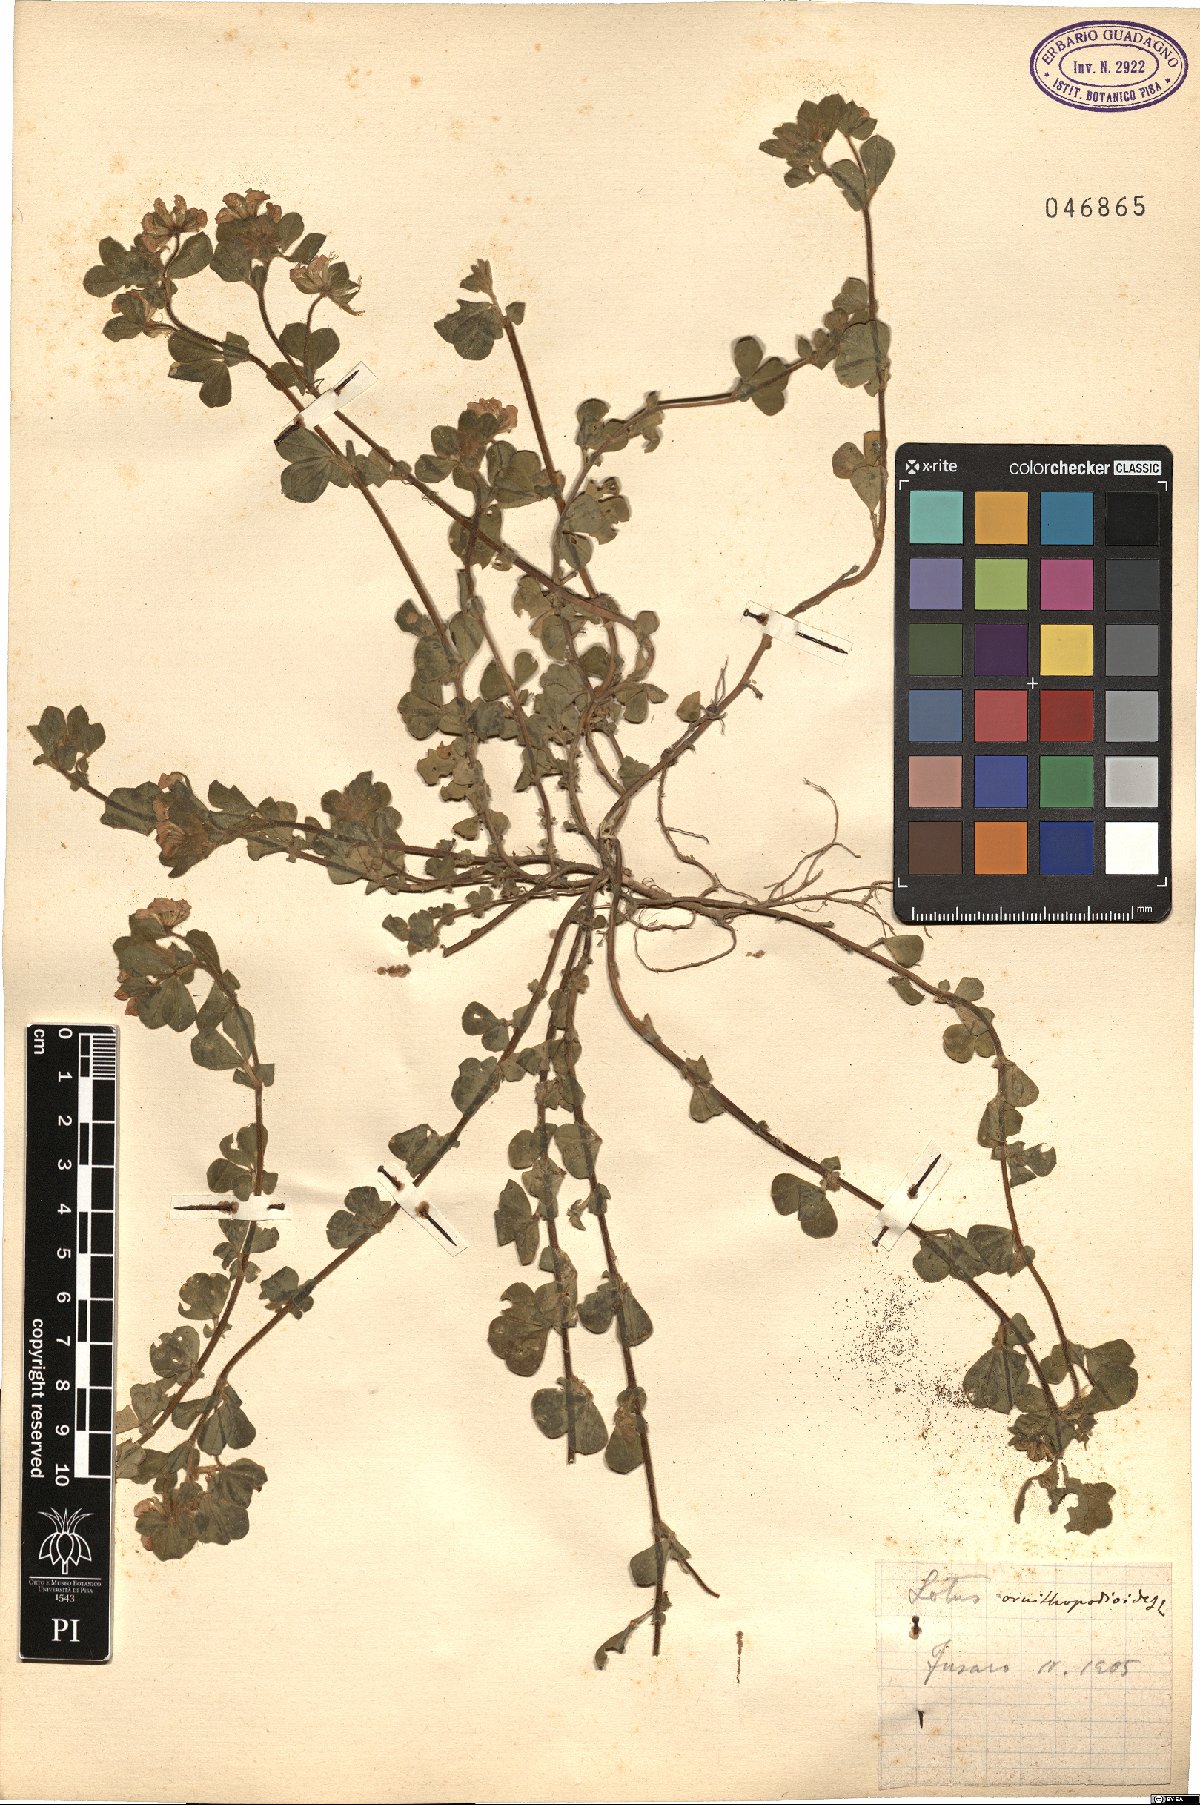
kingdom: Plantae
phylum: Tracheophyta
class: Magnoliopsida
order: Fabales
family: Fabaceae
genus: Lotus
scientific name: Lotus ornithopodioides
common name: Southern bird's-foot trefoil
